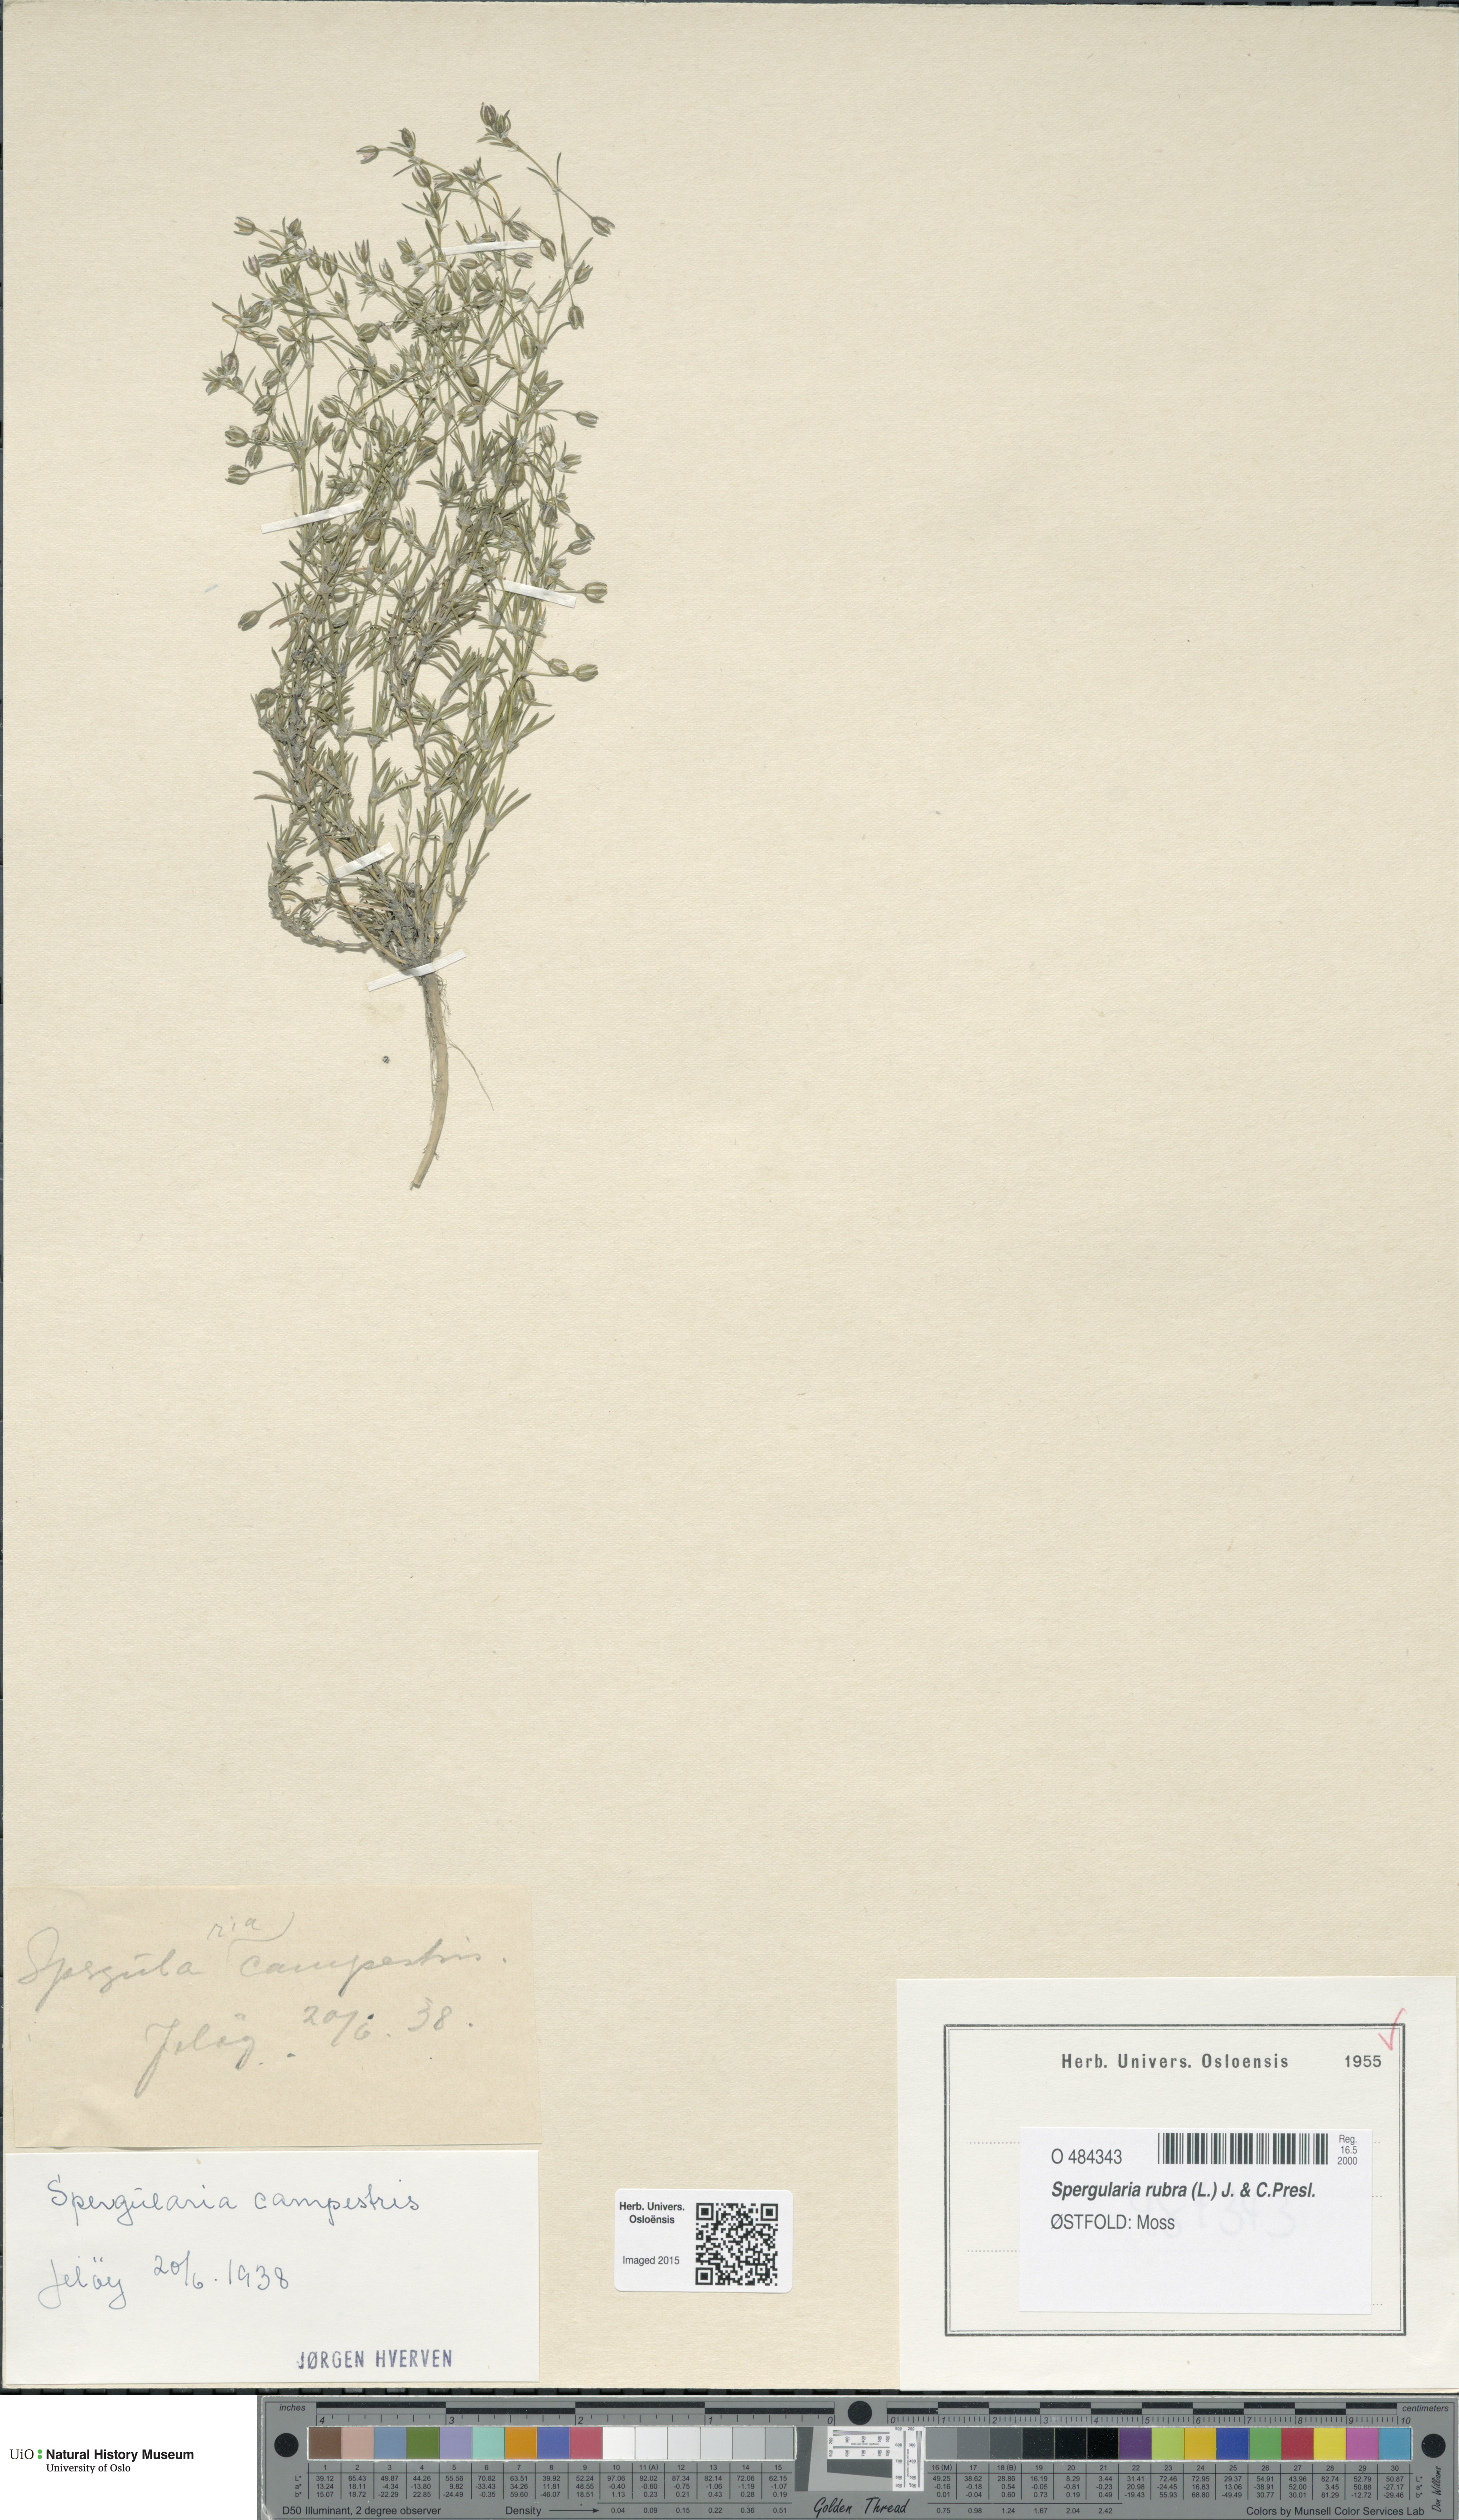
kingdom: Plantae
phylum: Tracheophyta
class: Magnoliopsida
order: Caryophyllales
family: Caryophyllaceae
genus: Spergularia
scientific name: Spergularia rubra
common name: Red sand-spurrey
